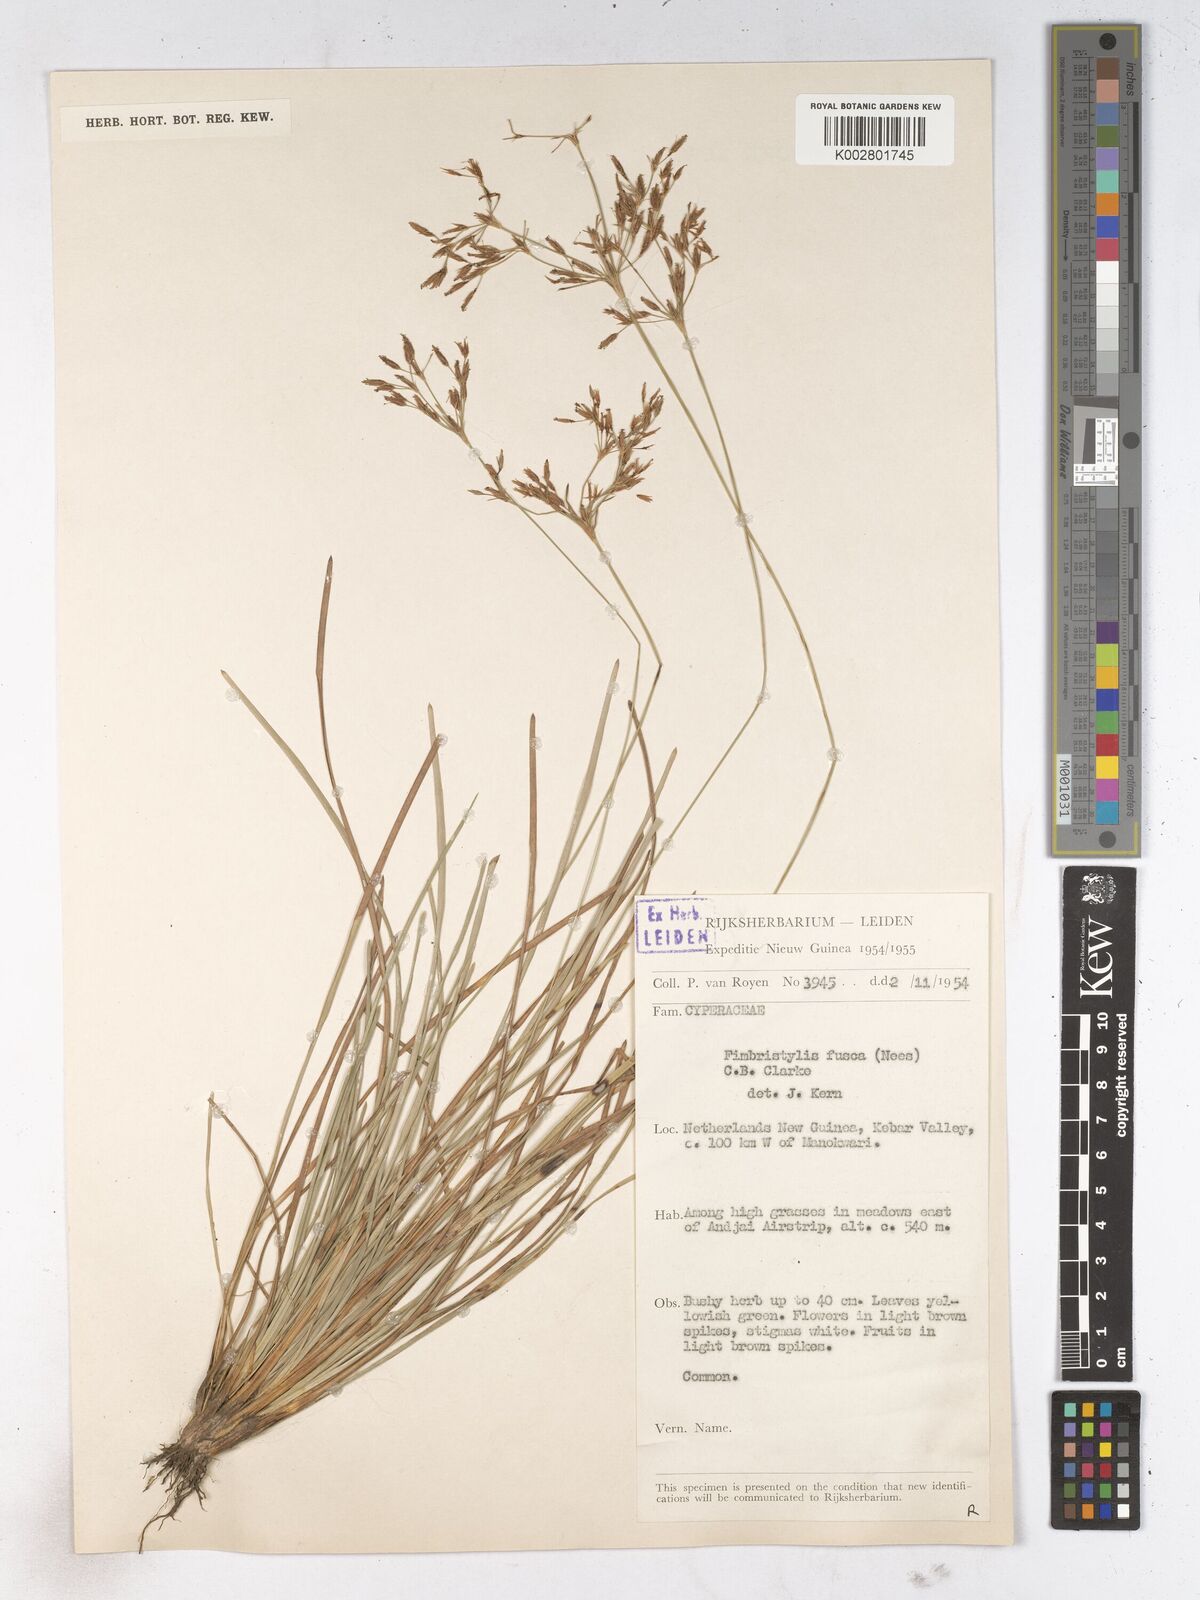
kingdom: Plantae
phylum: Tracheophyta
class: Liliopsida
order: Poales
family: Cyperaceae
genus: Fimbristylis
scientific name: Fimbristylis fusca
